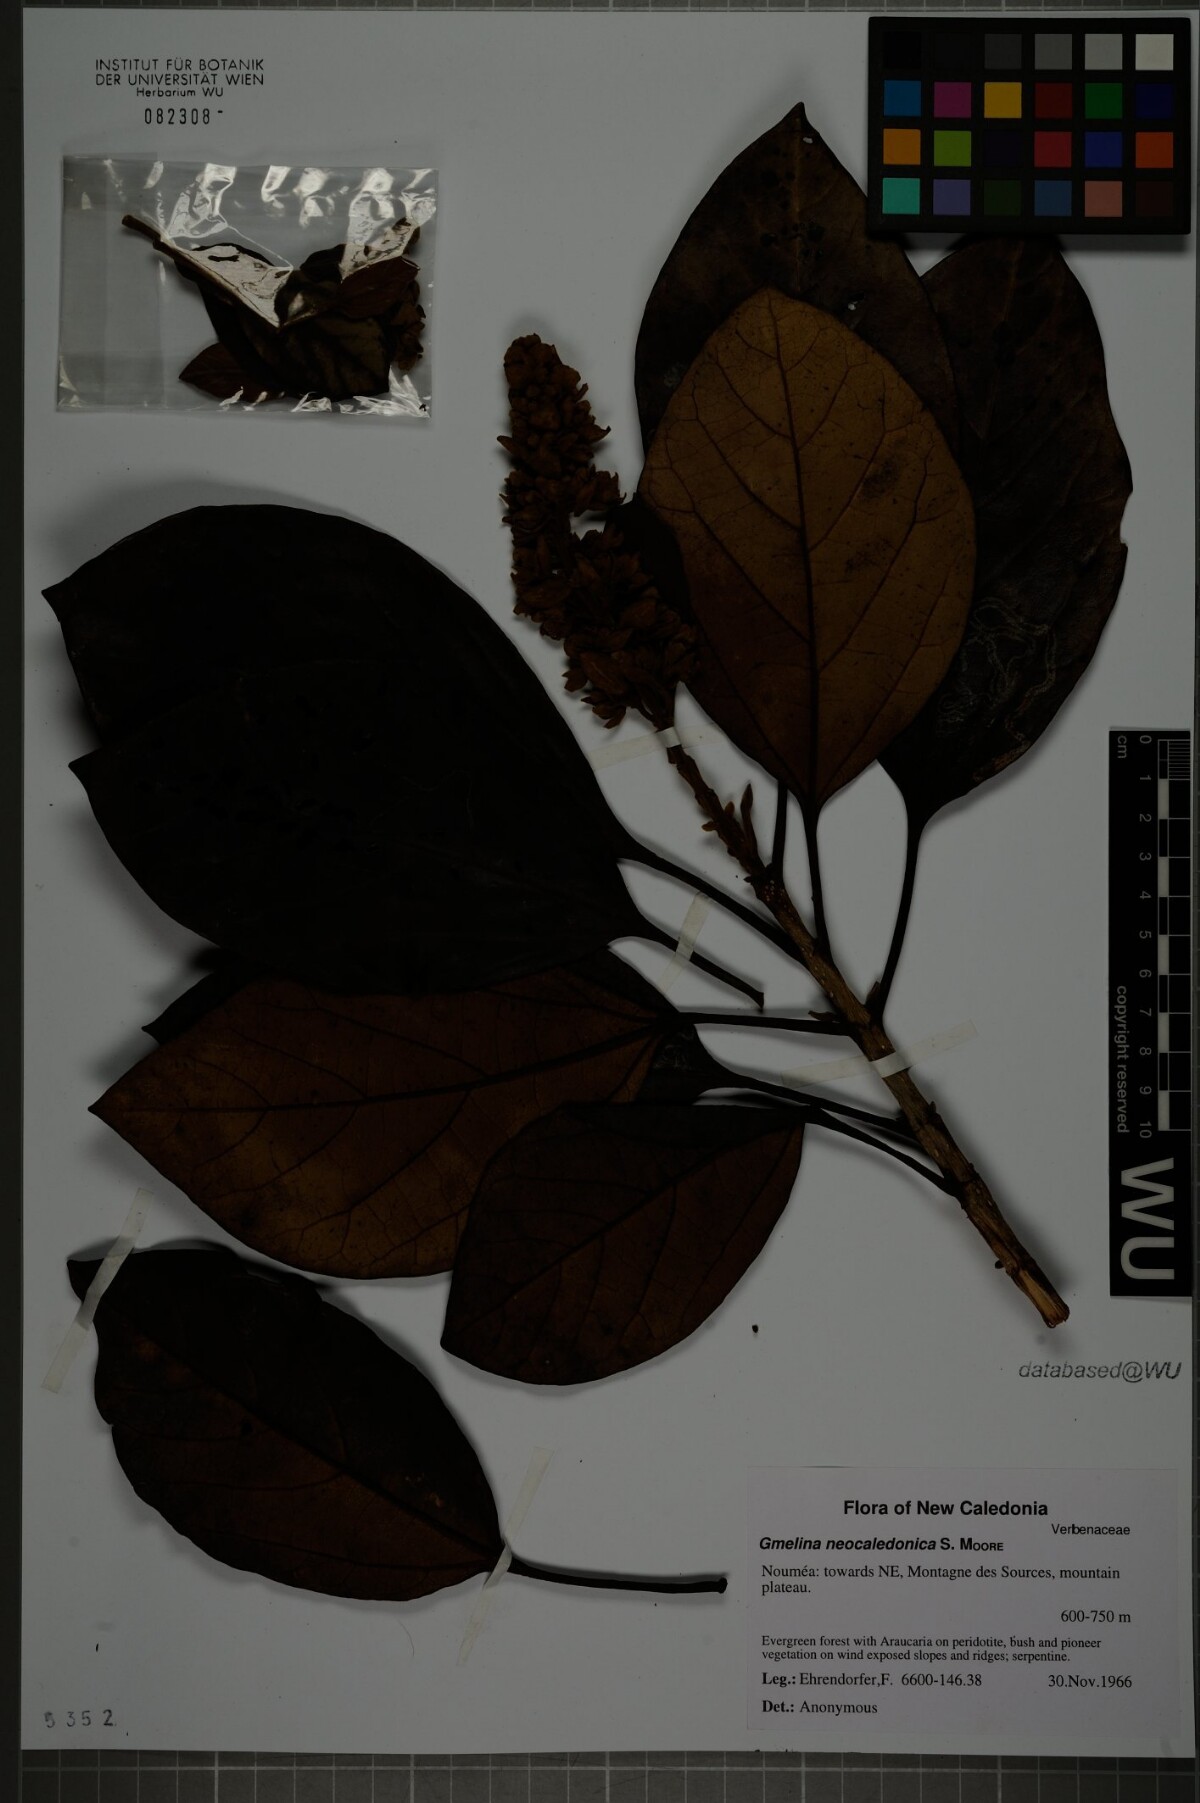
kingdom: Plantae
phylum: Tracheophyta
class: Magnoliopsida
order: Lamiales
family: Lamiaceae
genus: Gmelina
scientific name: Gmelina neocaledonica
